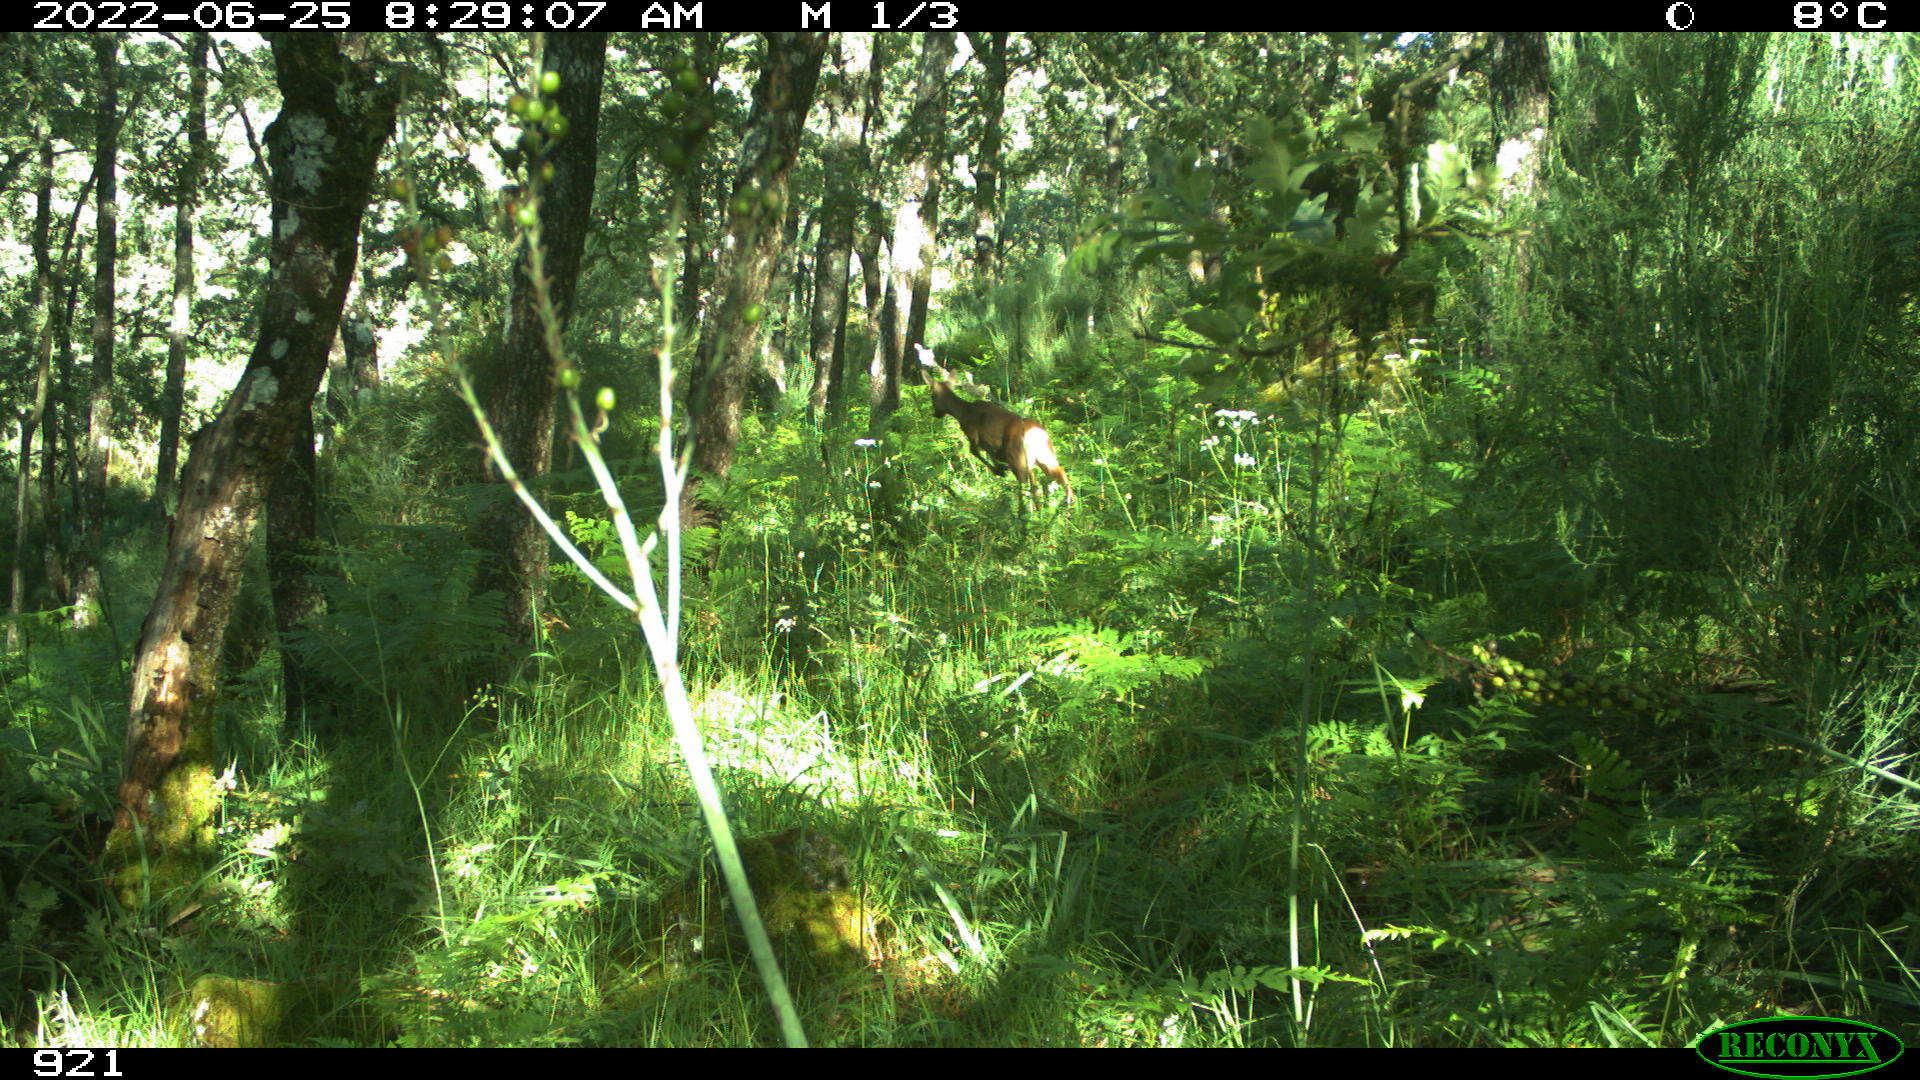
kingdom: Animalia
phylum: Chordata
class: Mammalia
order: Artiodactyla
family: Cervidae
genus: Capreolus
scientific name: Capreolus capreolus
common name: Western roe deer
